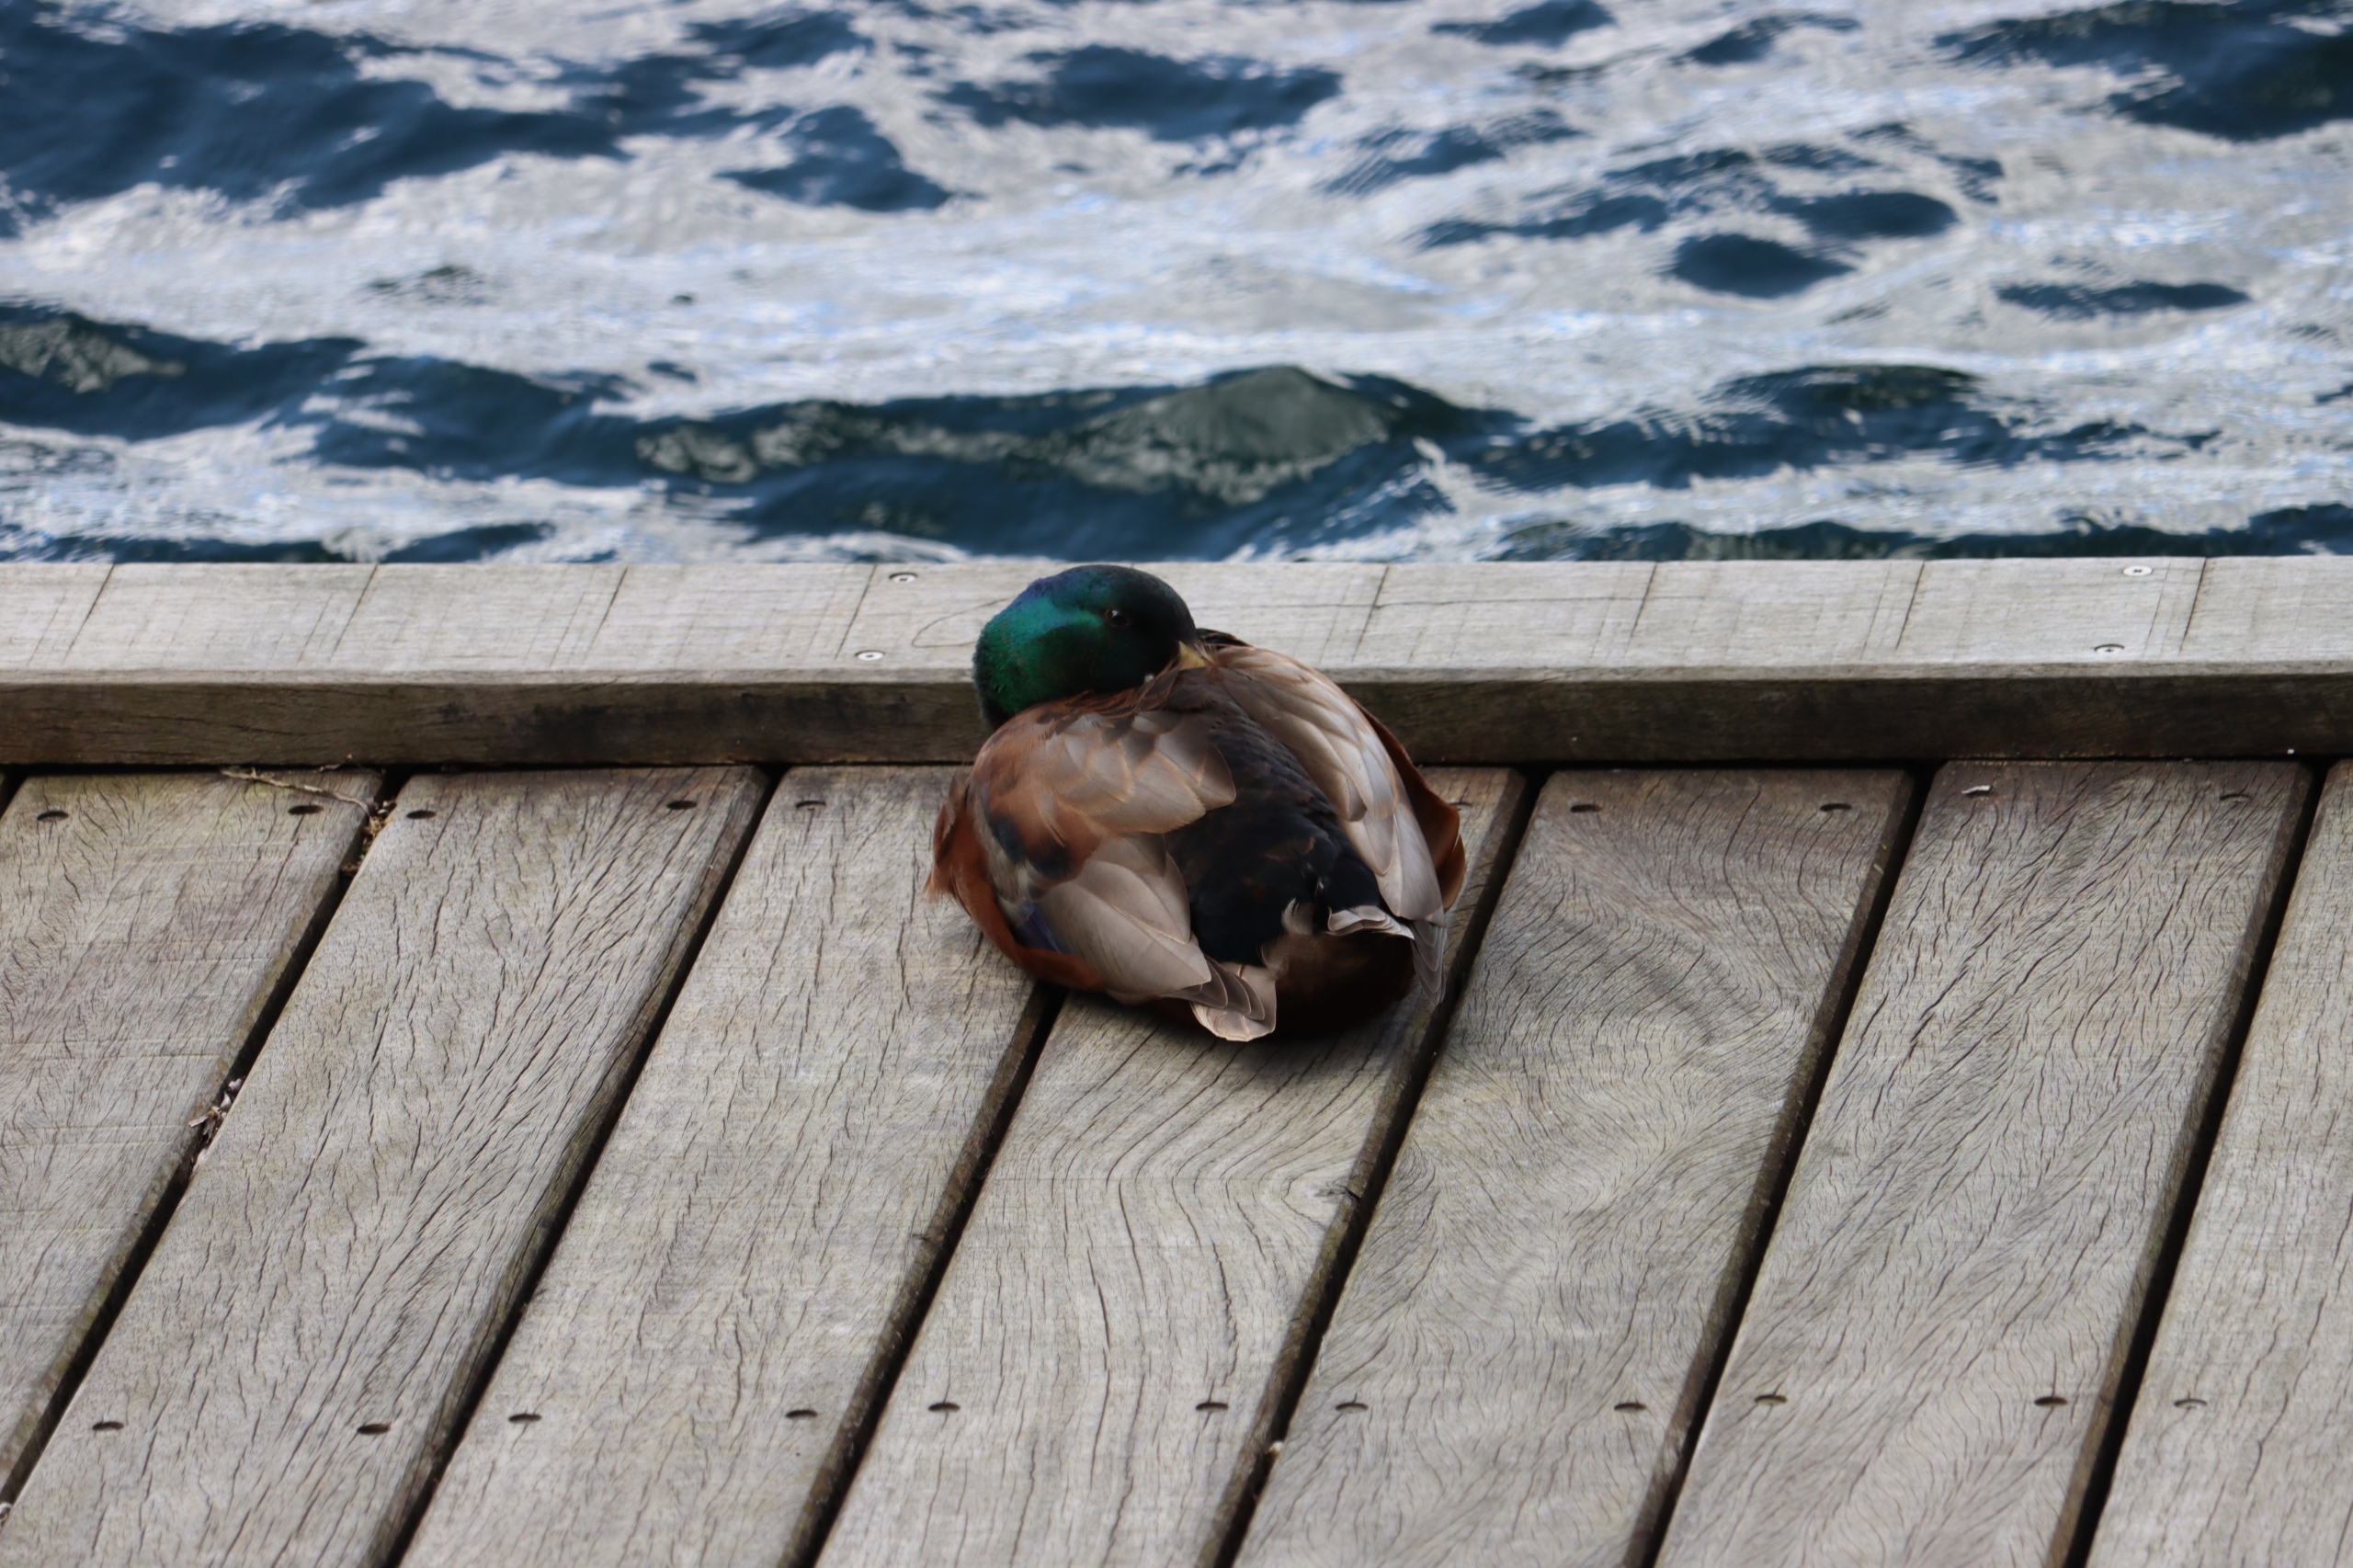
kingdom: Animalia
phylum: Chordata
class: Aves
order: Anseriformes
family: Anatidae
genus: Anas
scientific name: Anas platyrhynchos
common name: Gråand
